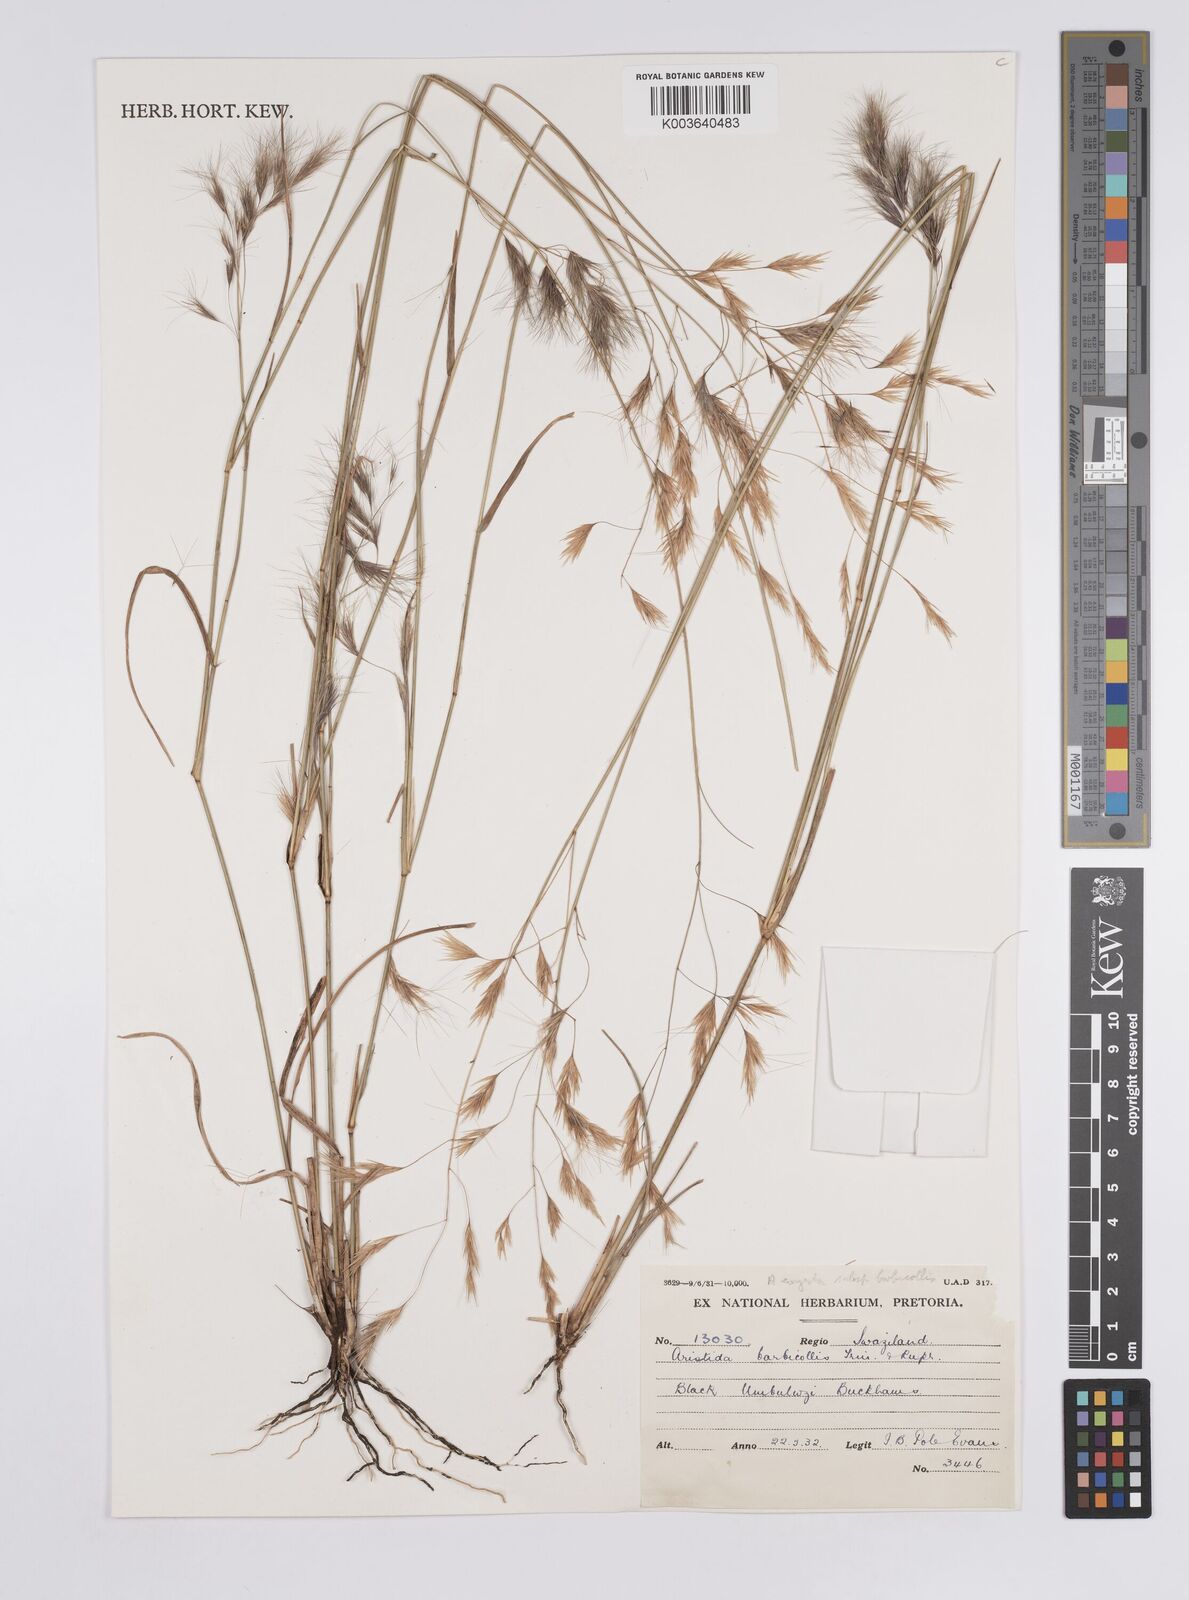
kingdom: Plantae
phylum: Tracheophyta
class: Liliopsida
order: Poales
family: Poaceae
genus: Aristida
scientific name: Aristida barbicollis
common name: Spreading prickle grass
